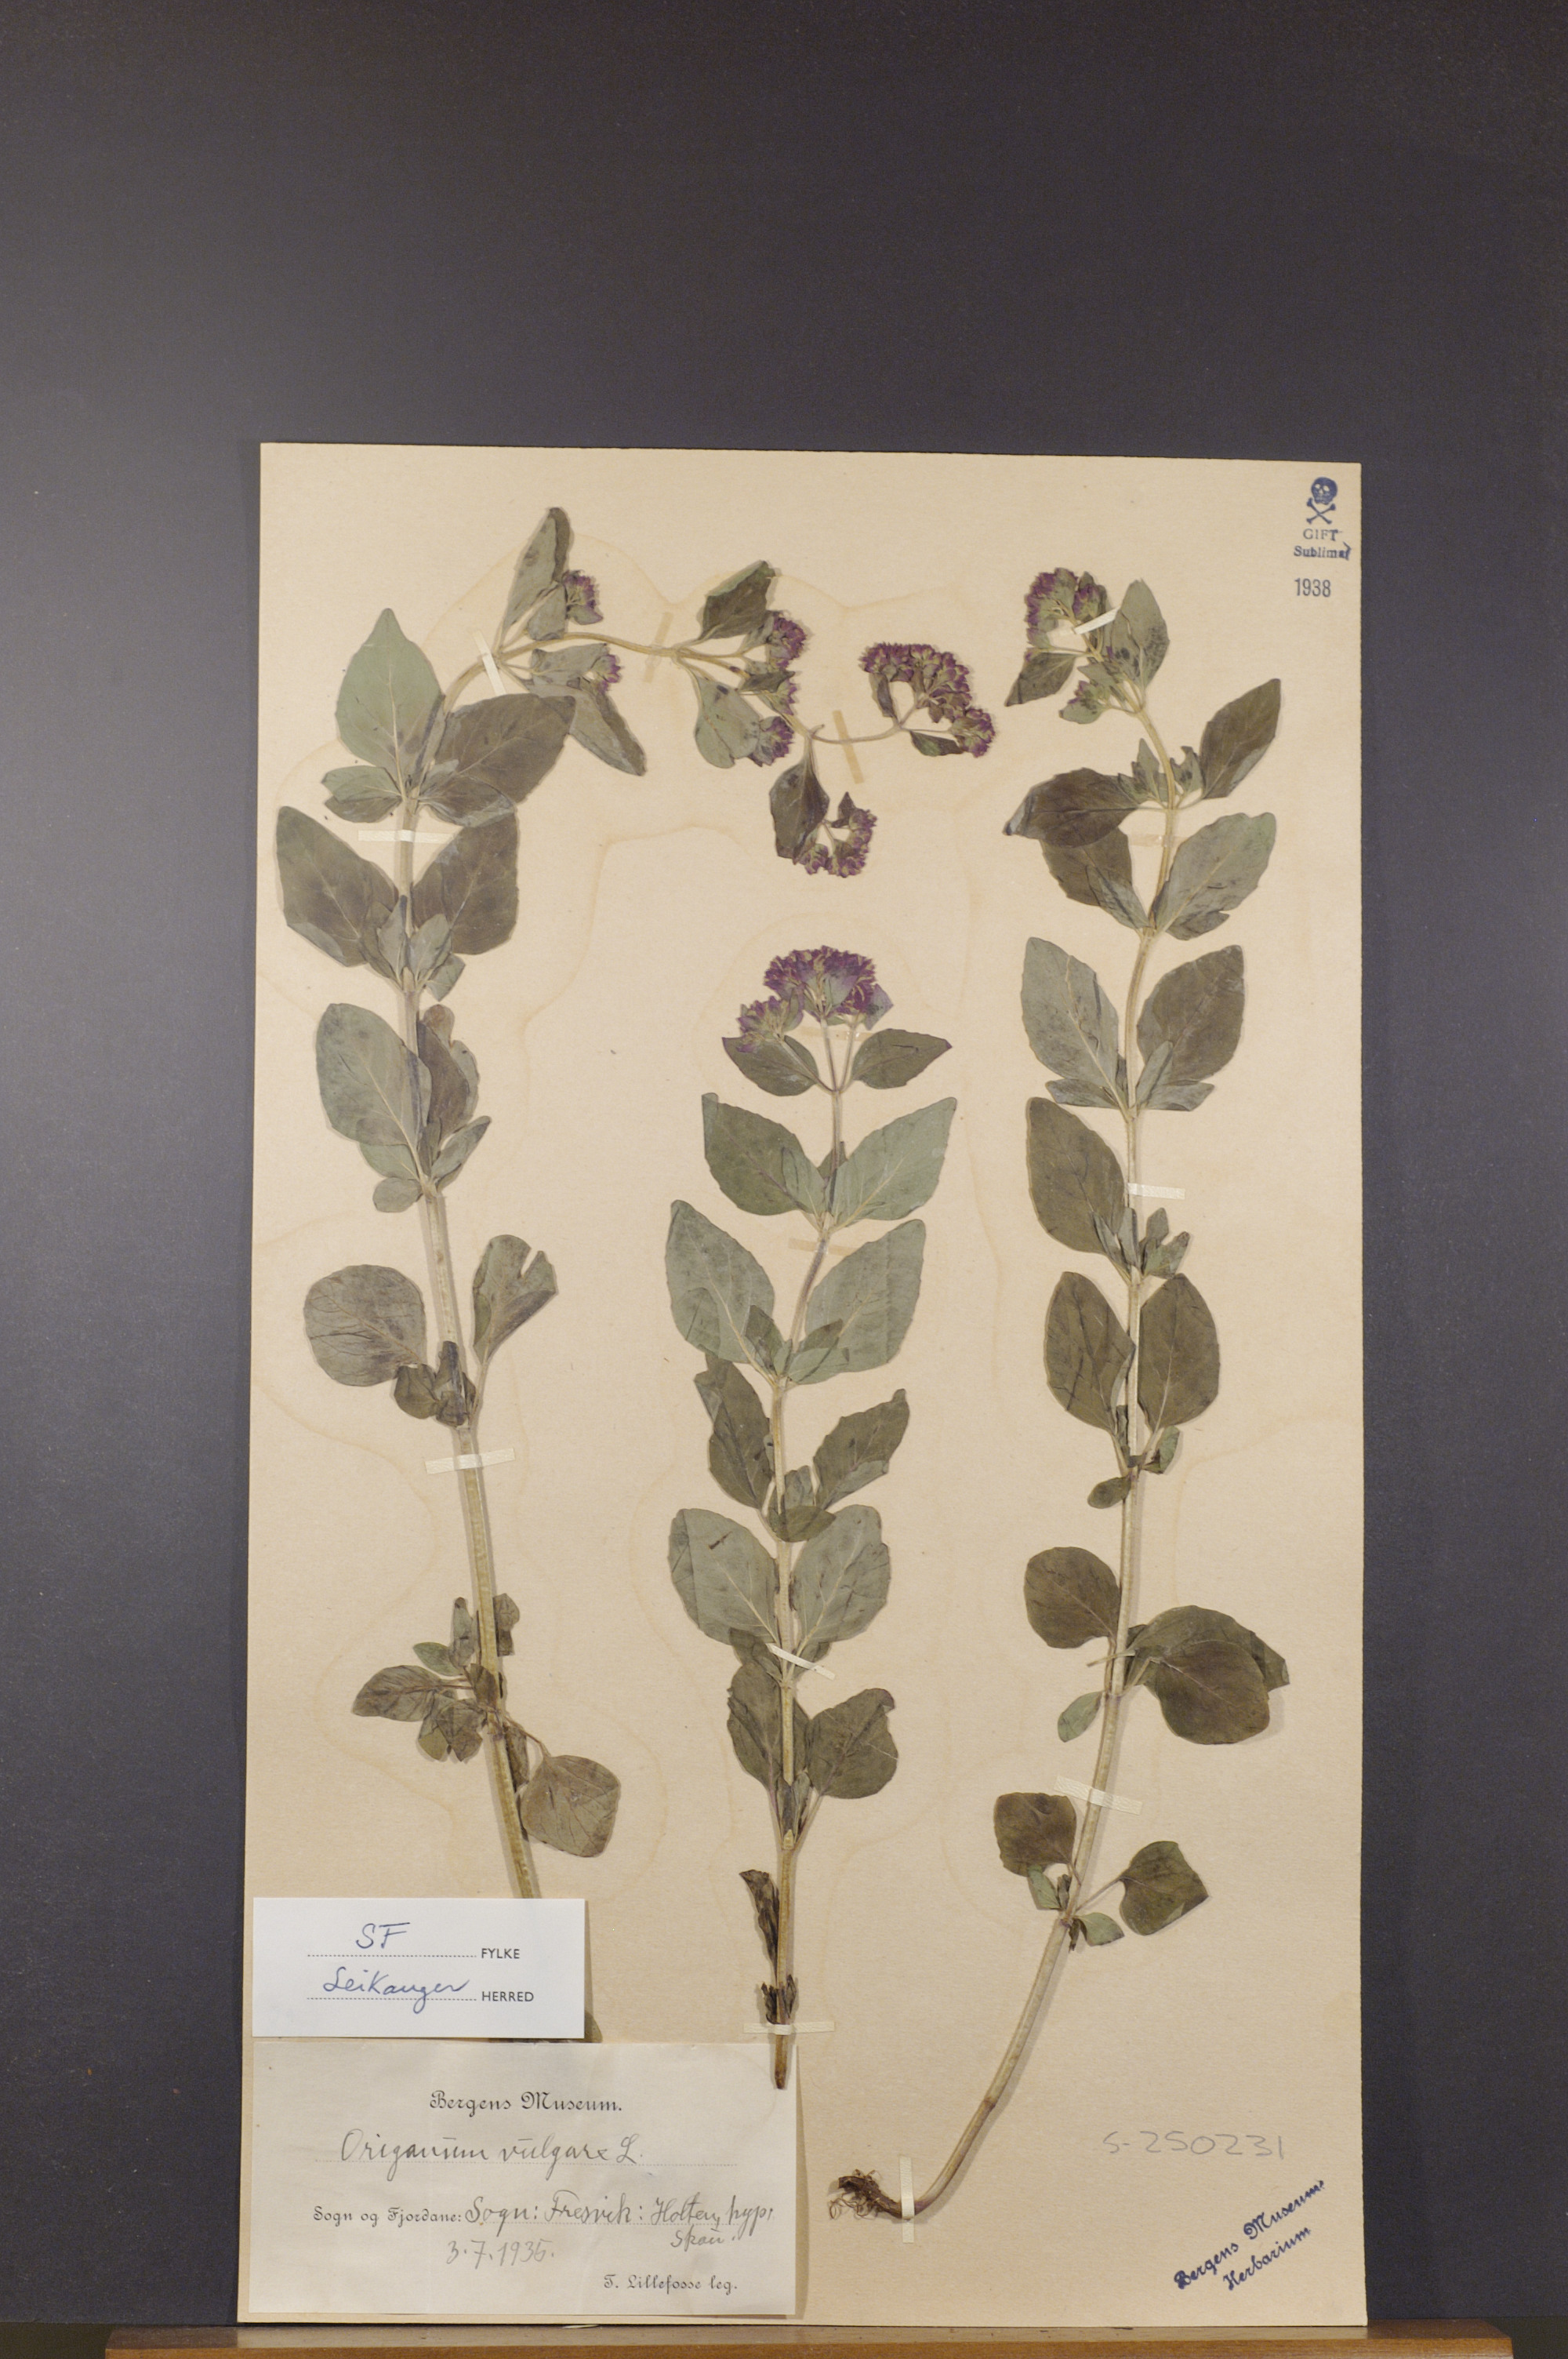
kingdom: Plantae
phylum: Tracheophyta
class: Magnoliopsida
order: Lamiales
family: Lamiaceae
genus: Origanum
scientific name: Origanum vulgare
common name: Wild marjoram
